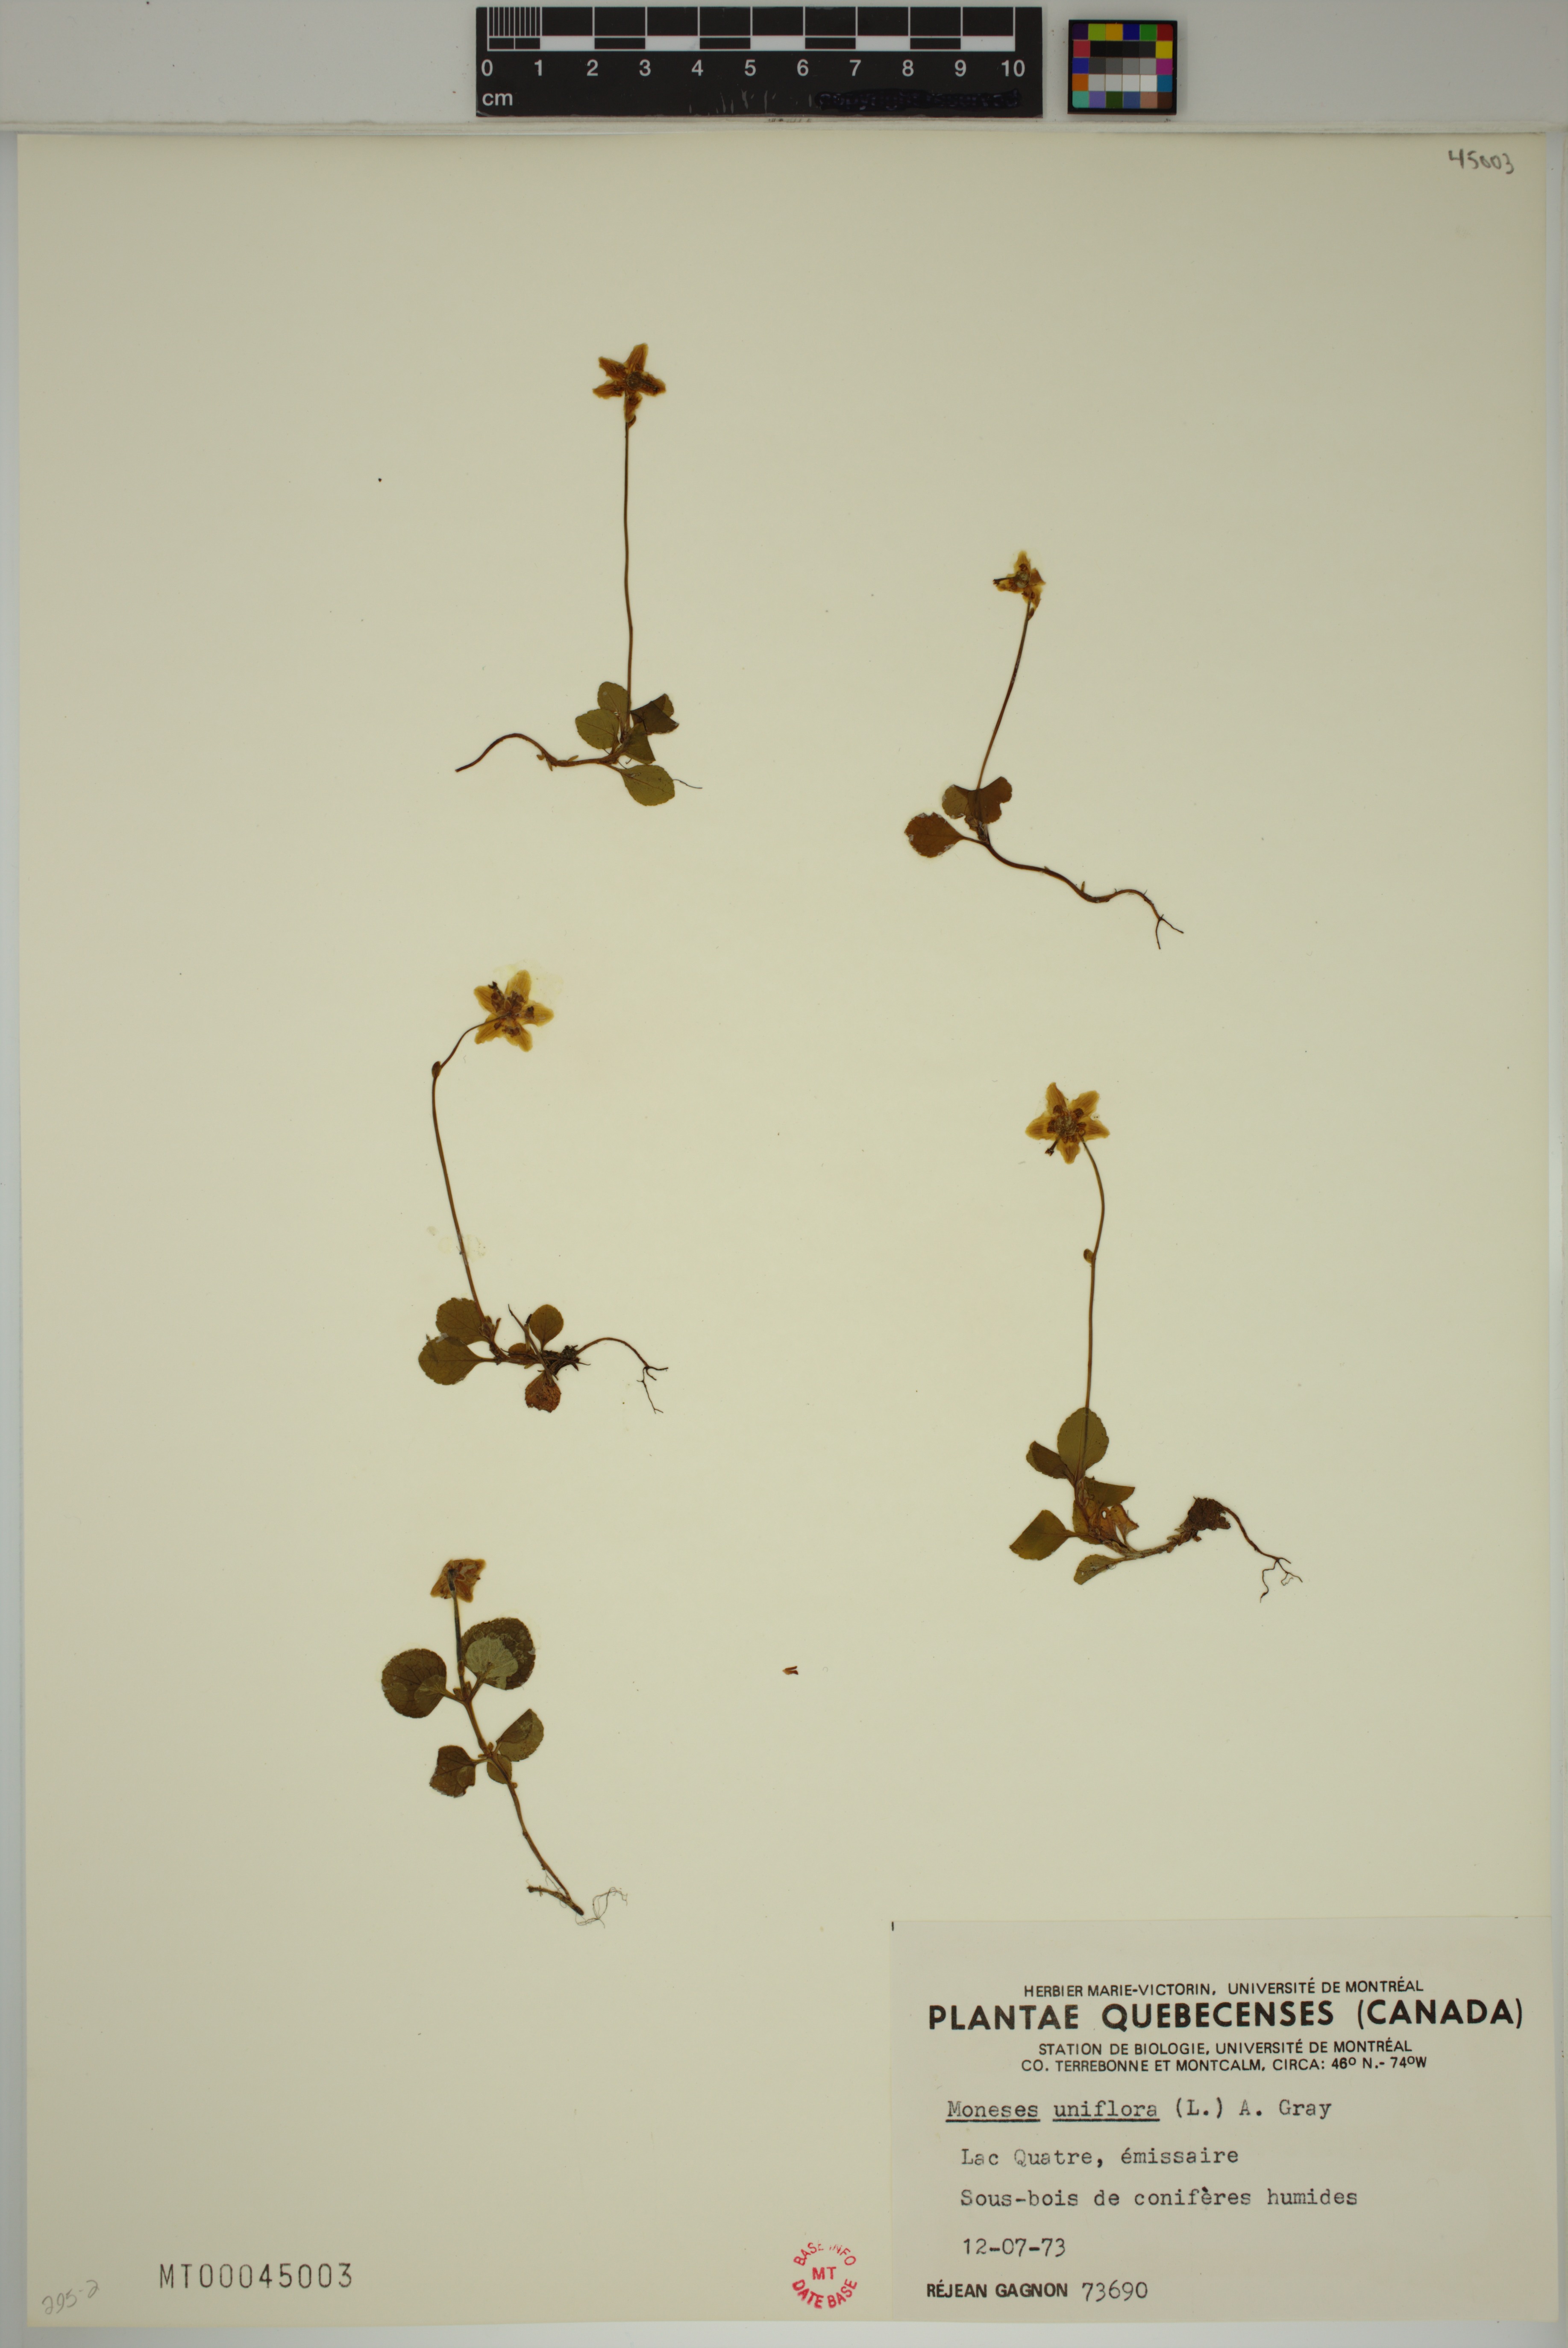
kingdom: Plantae
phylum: Tracheophyta
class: Magnoliopsida
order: Ericales
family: Ericaceae
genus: Moneses
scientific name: Moneses uniflora
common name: One-flowered wintergreen
